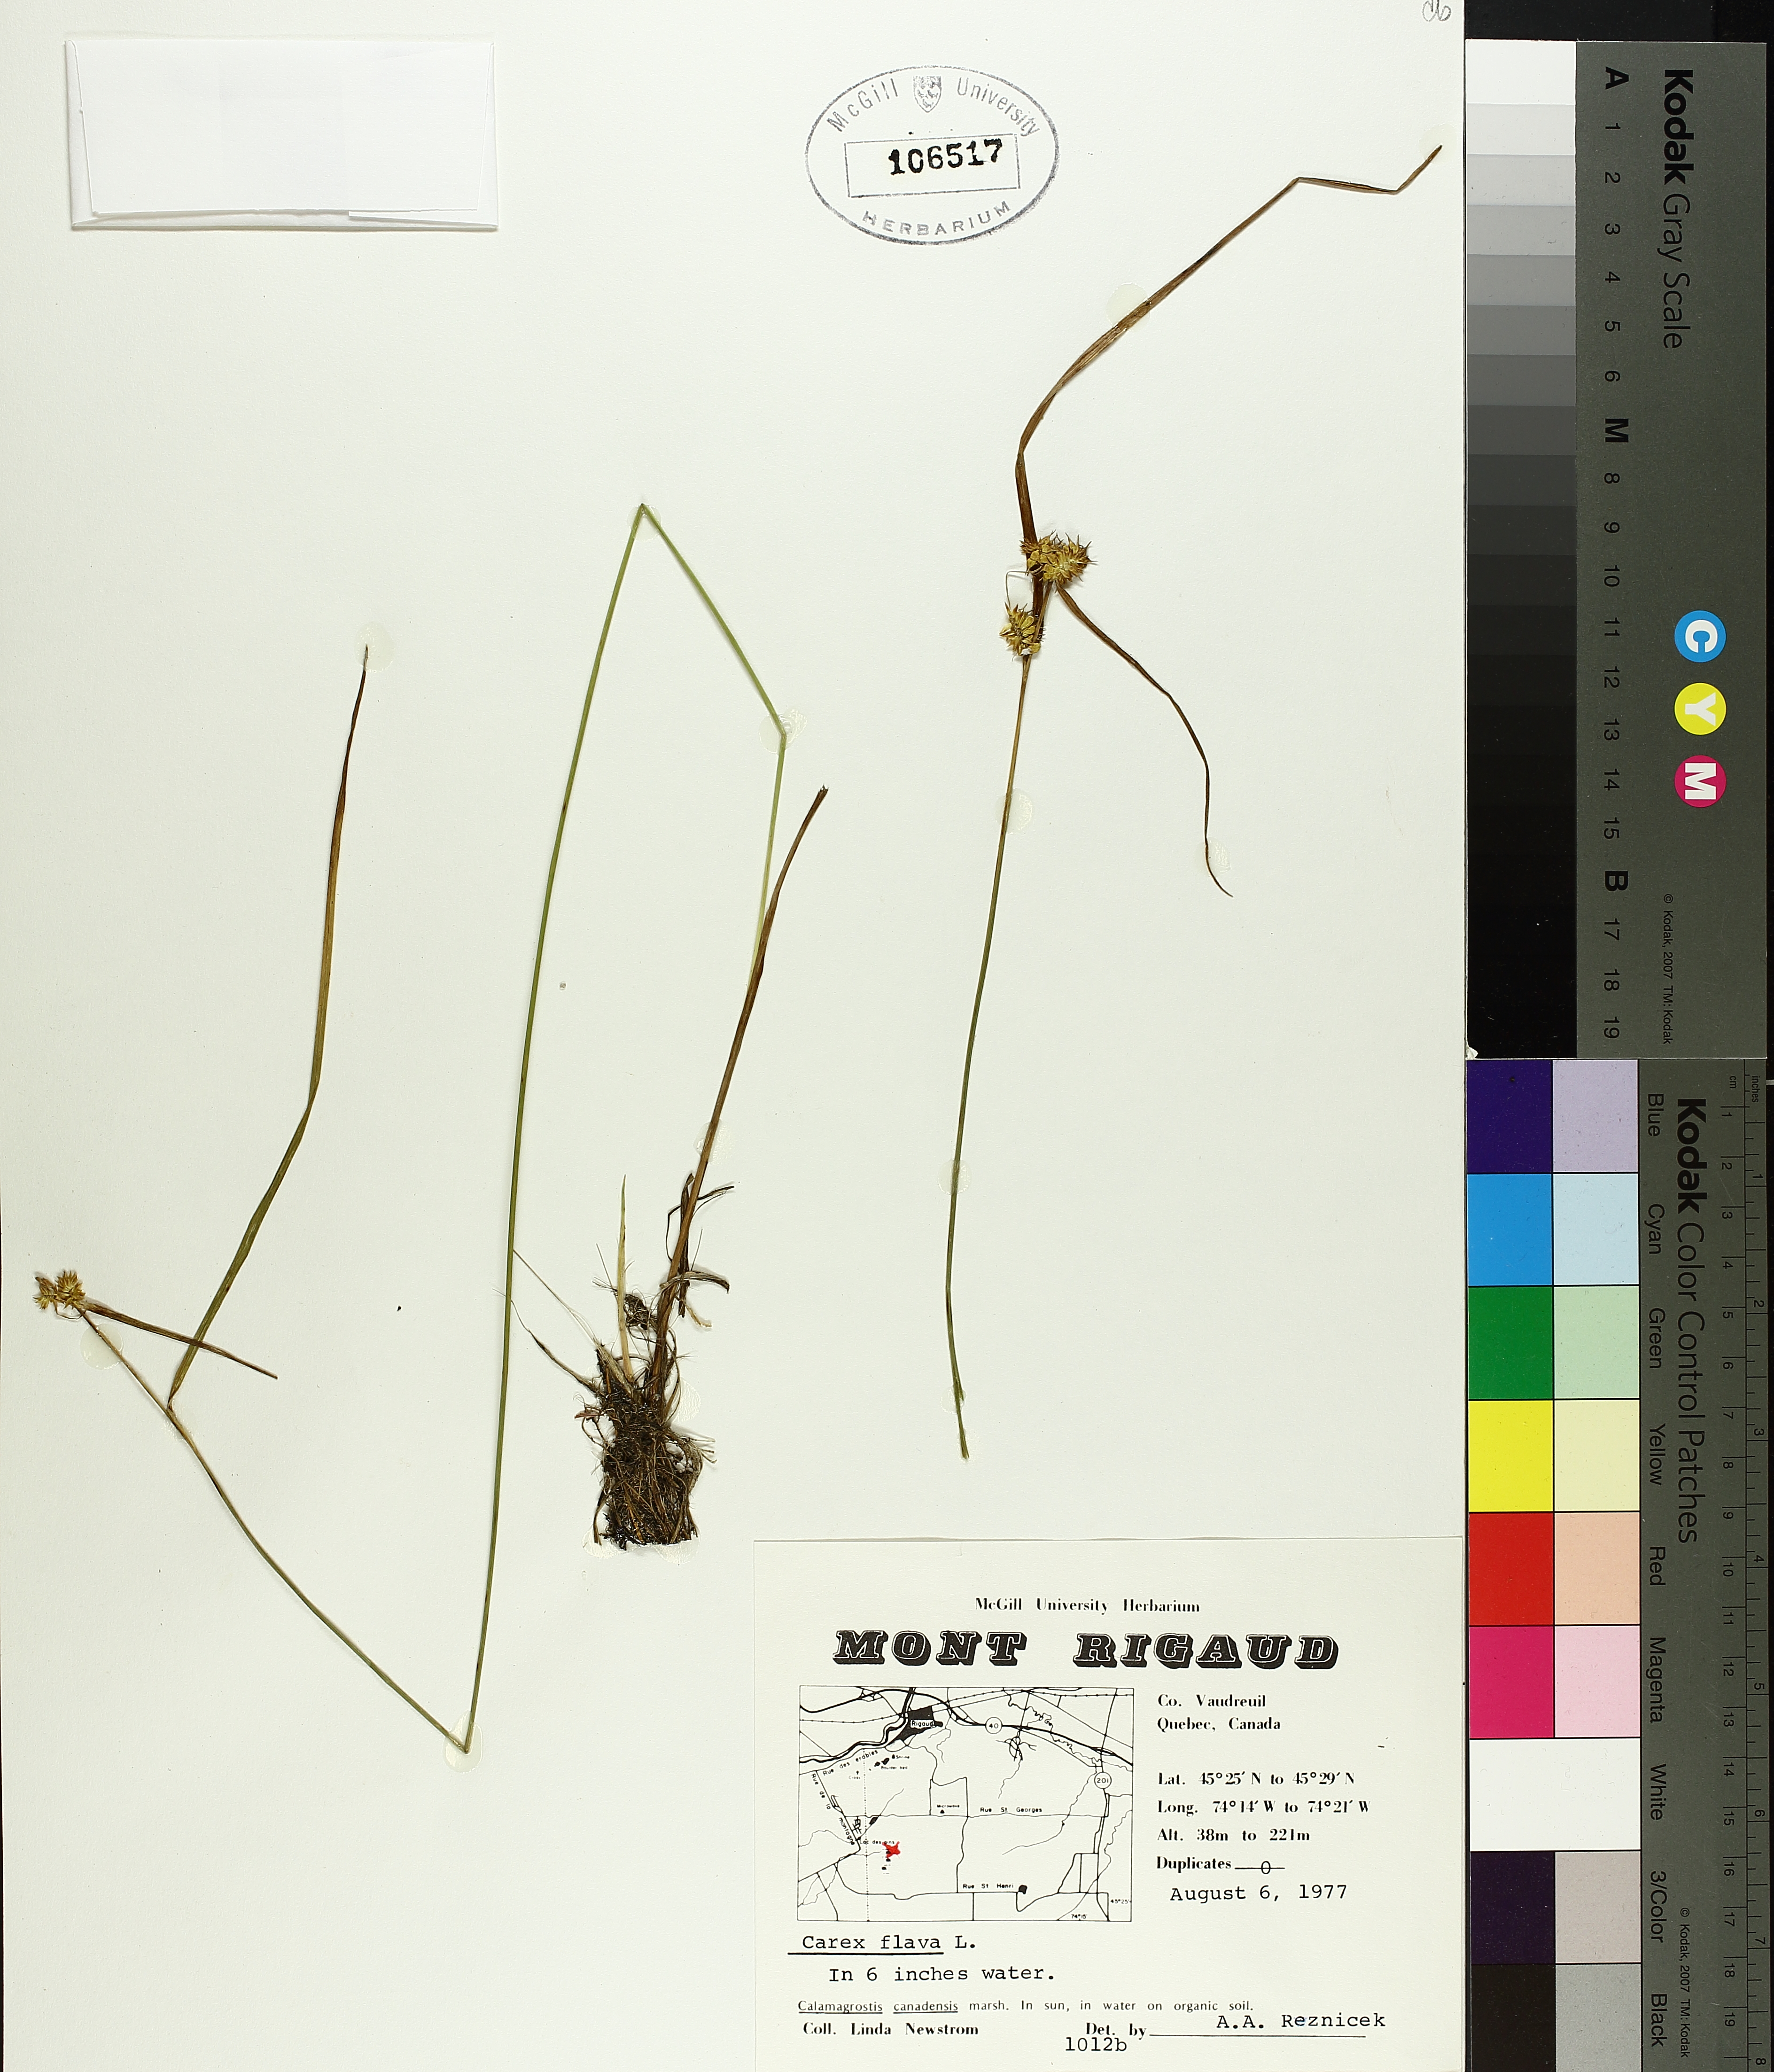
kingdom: Plantae
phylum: Tracheophyta
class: Liliopsida
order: Poales
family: Cyperaceae
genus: Carex
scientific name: Carex flava
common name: Large yellow-sedge
